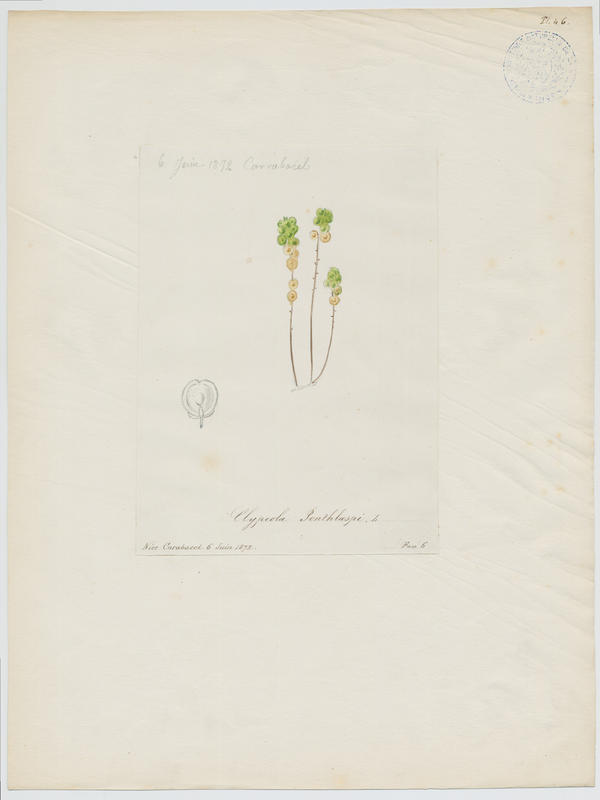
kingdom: Plantae
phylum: Tracheophyta
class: Magnoliopsida
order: Brassicales
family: Brassicaceae
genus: Clypeola
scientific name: Clypeola jonthlaspi
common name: Disk cress
